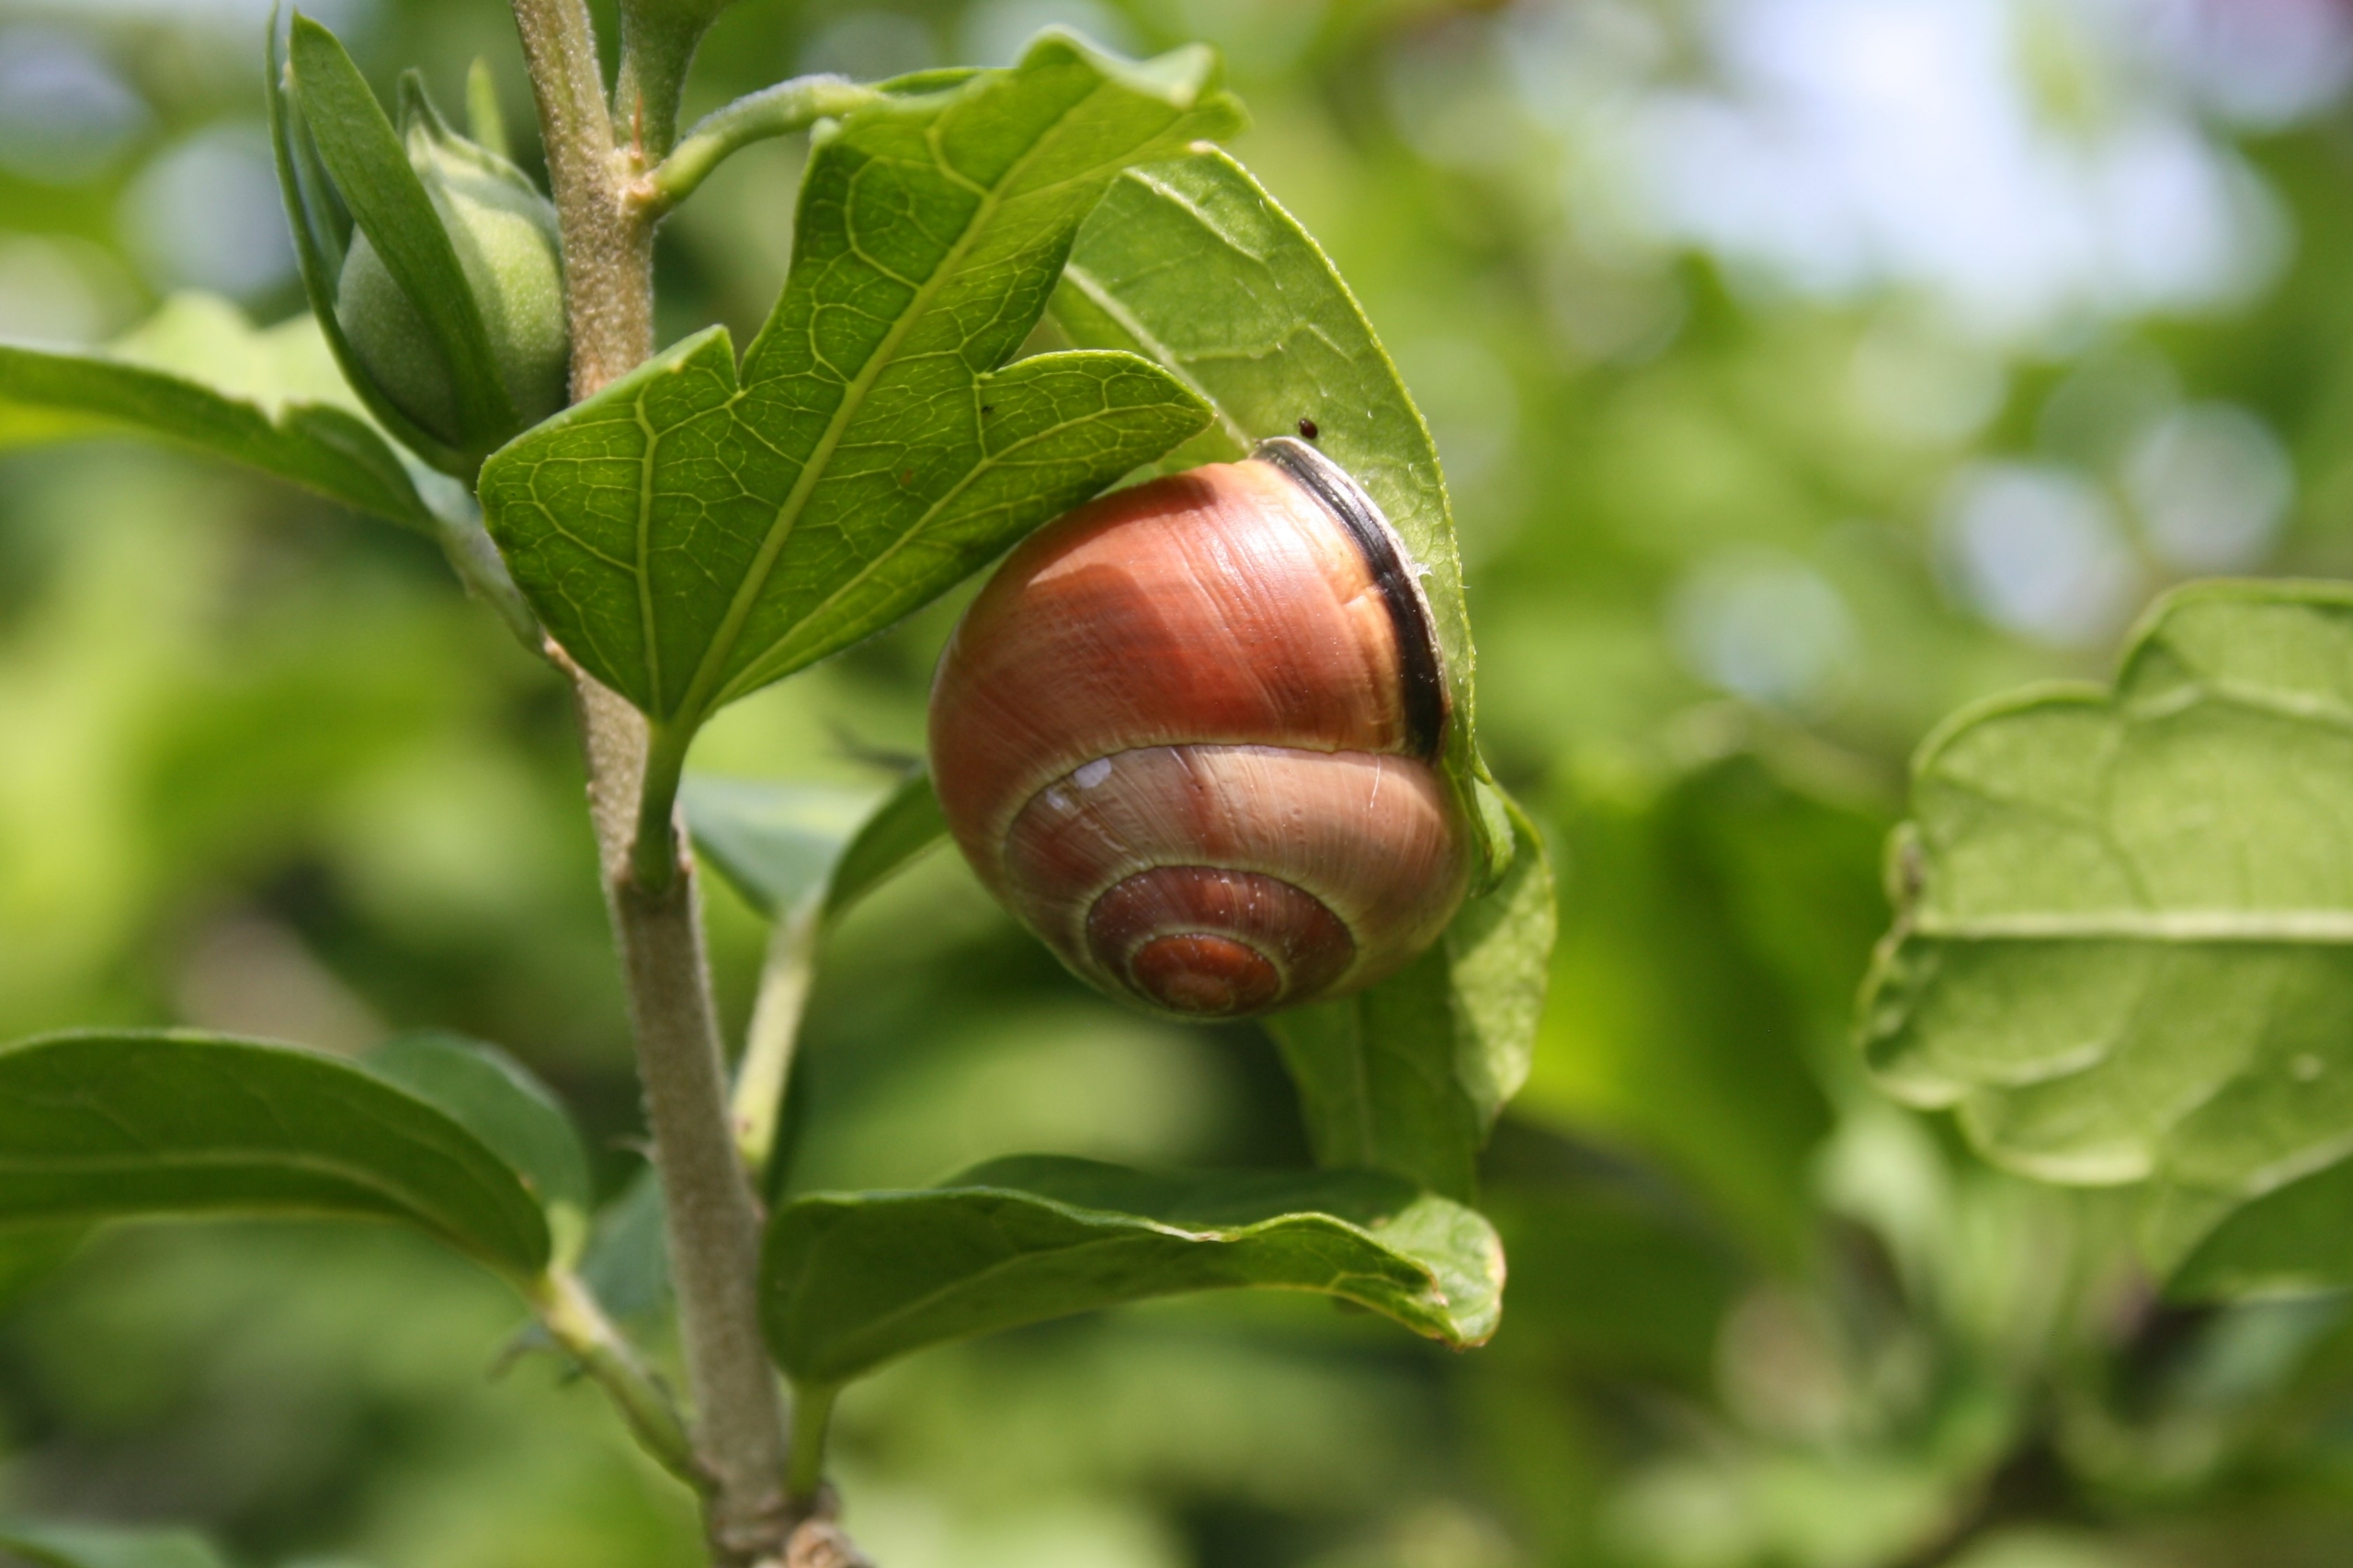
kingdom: Animalia
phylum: Mollusca
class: Gastropoda
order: Stylommatophora
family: Helicidae
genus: Cepaea
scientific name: Cepaea nemoralis
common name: Lundsnegl
